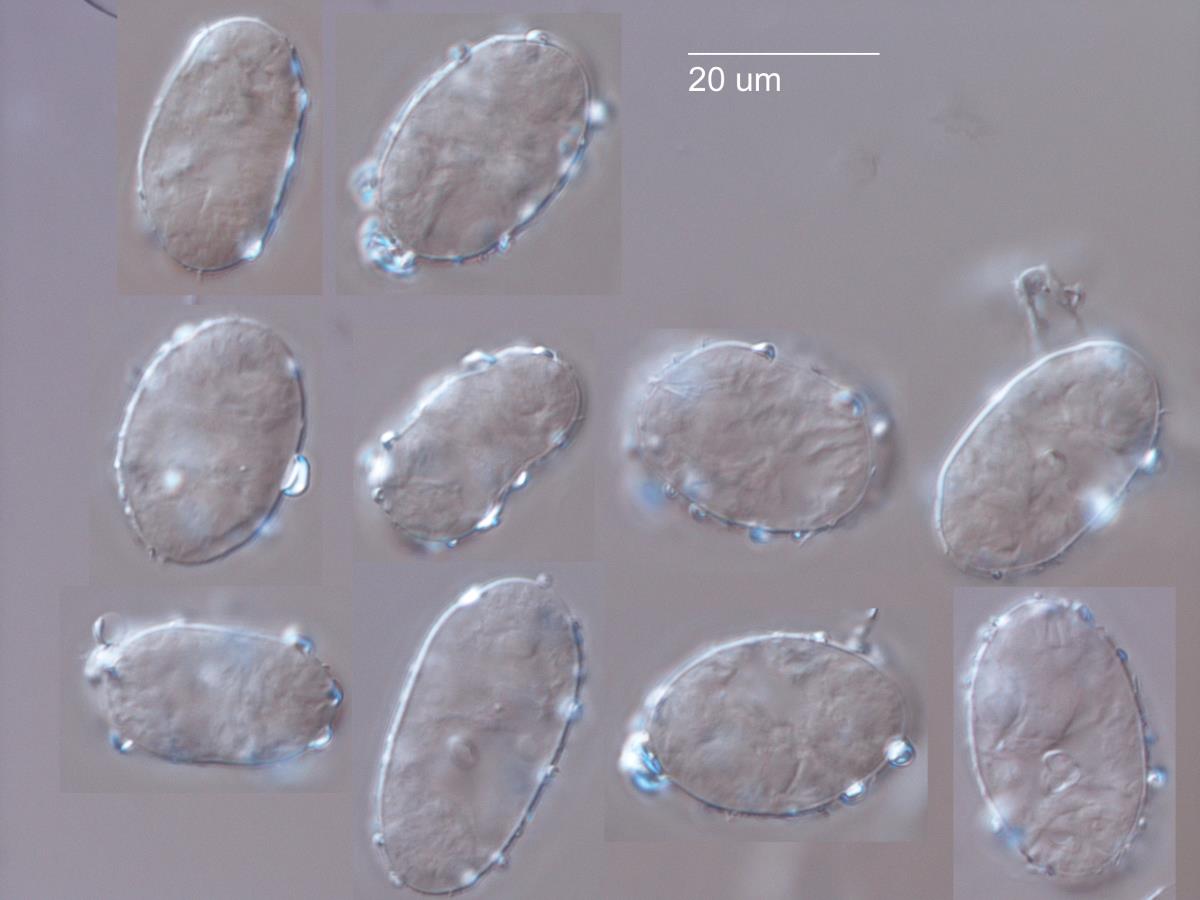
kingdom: Fungi
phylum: Ascomycota
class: Leotiomycetes
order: Helotiales
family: Erysiphaceae
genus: Podosphaera
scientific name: Podosphaera fusca
